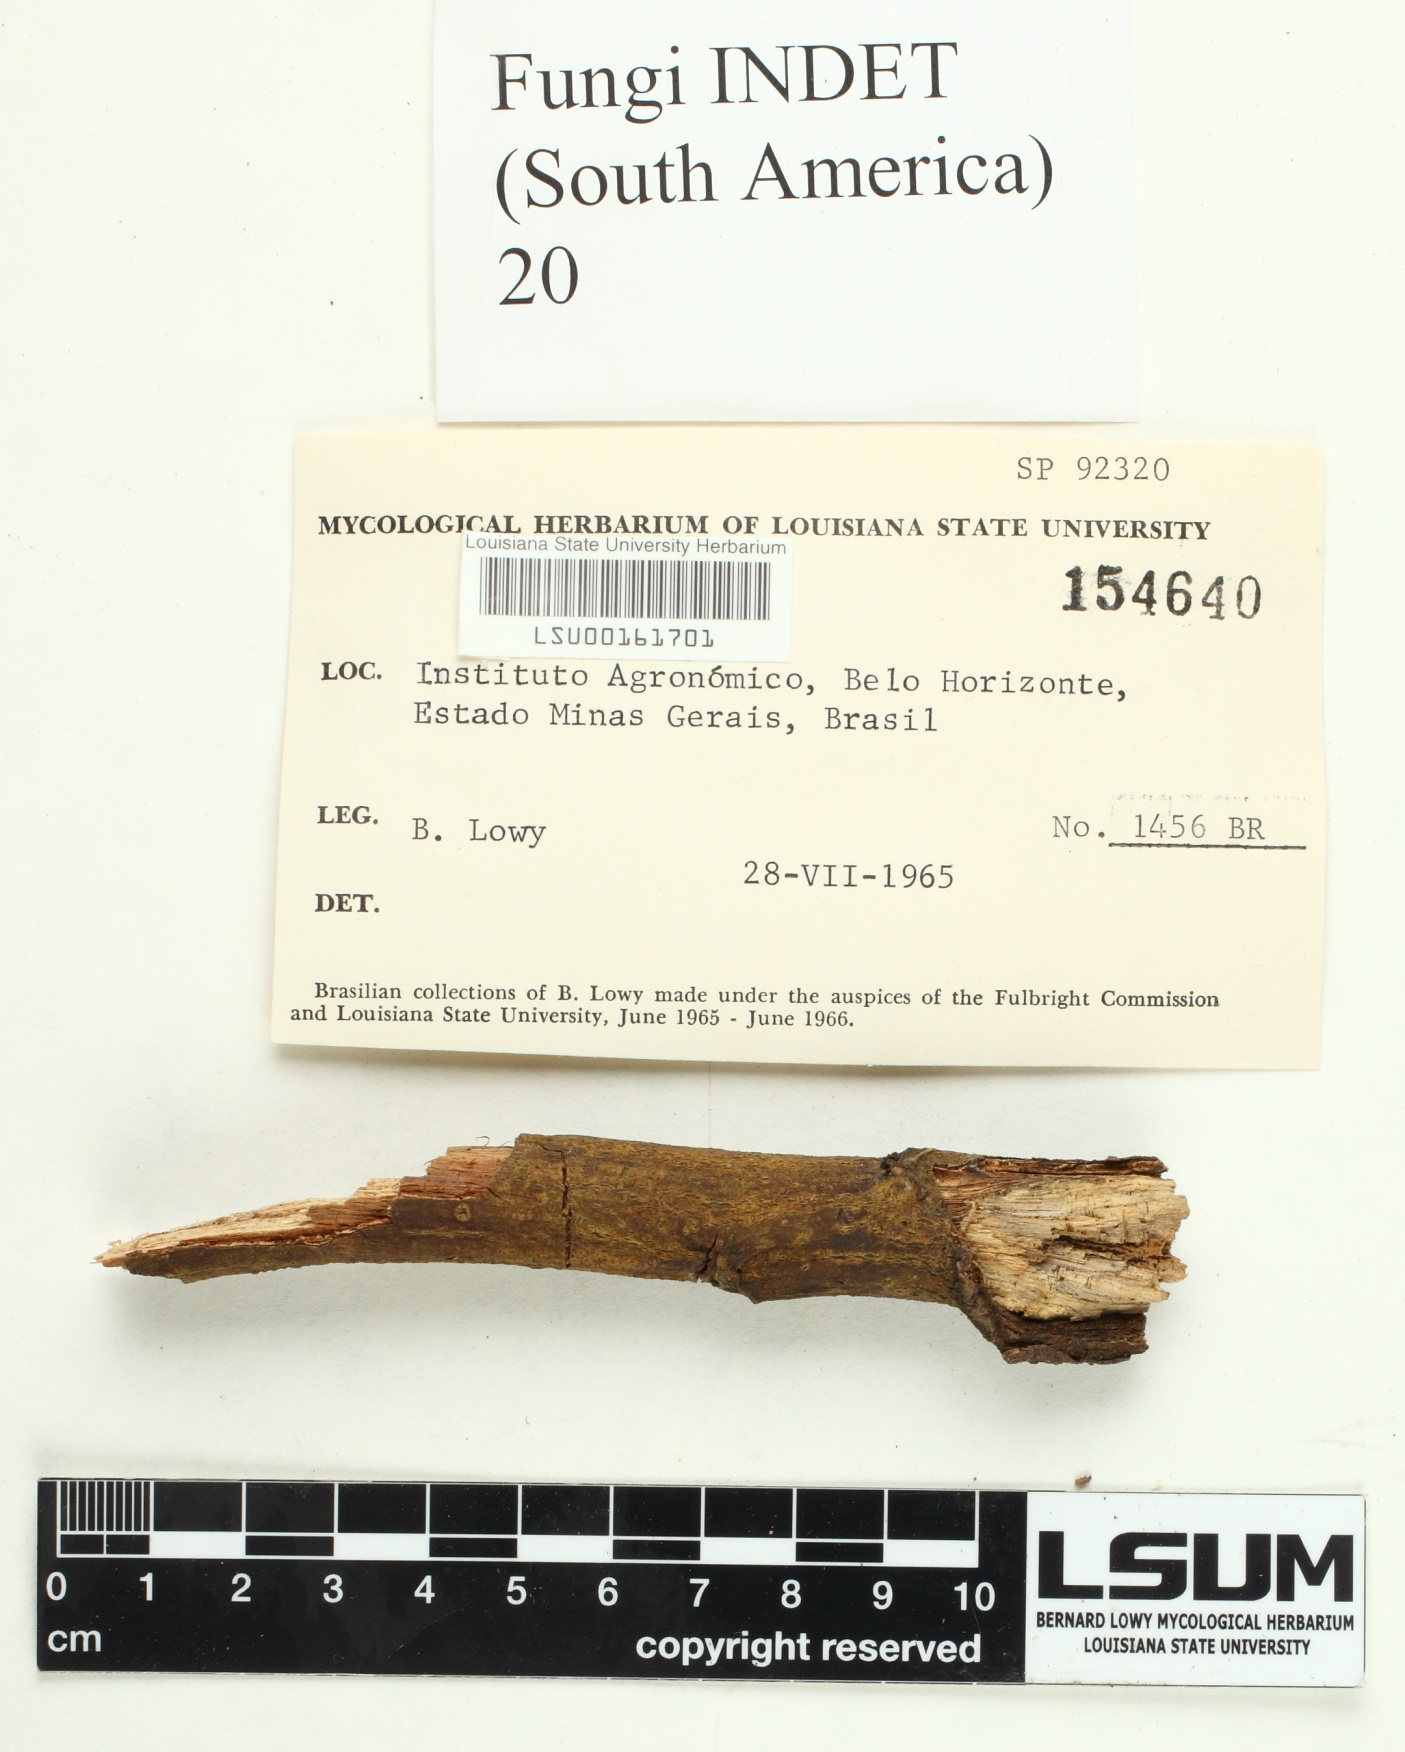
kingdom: Fungi
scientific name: Fungi
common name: Fungi
